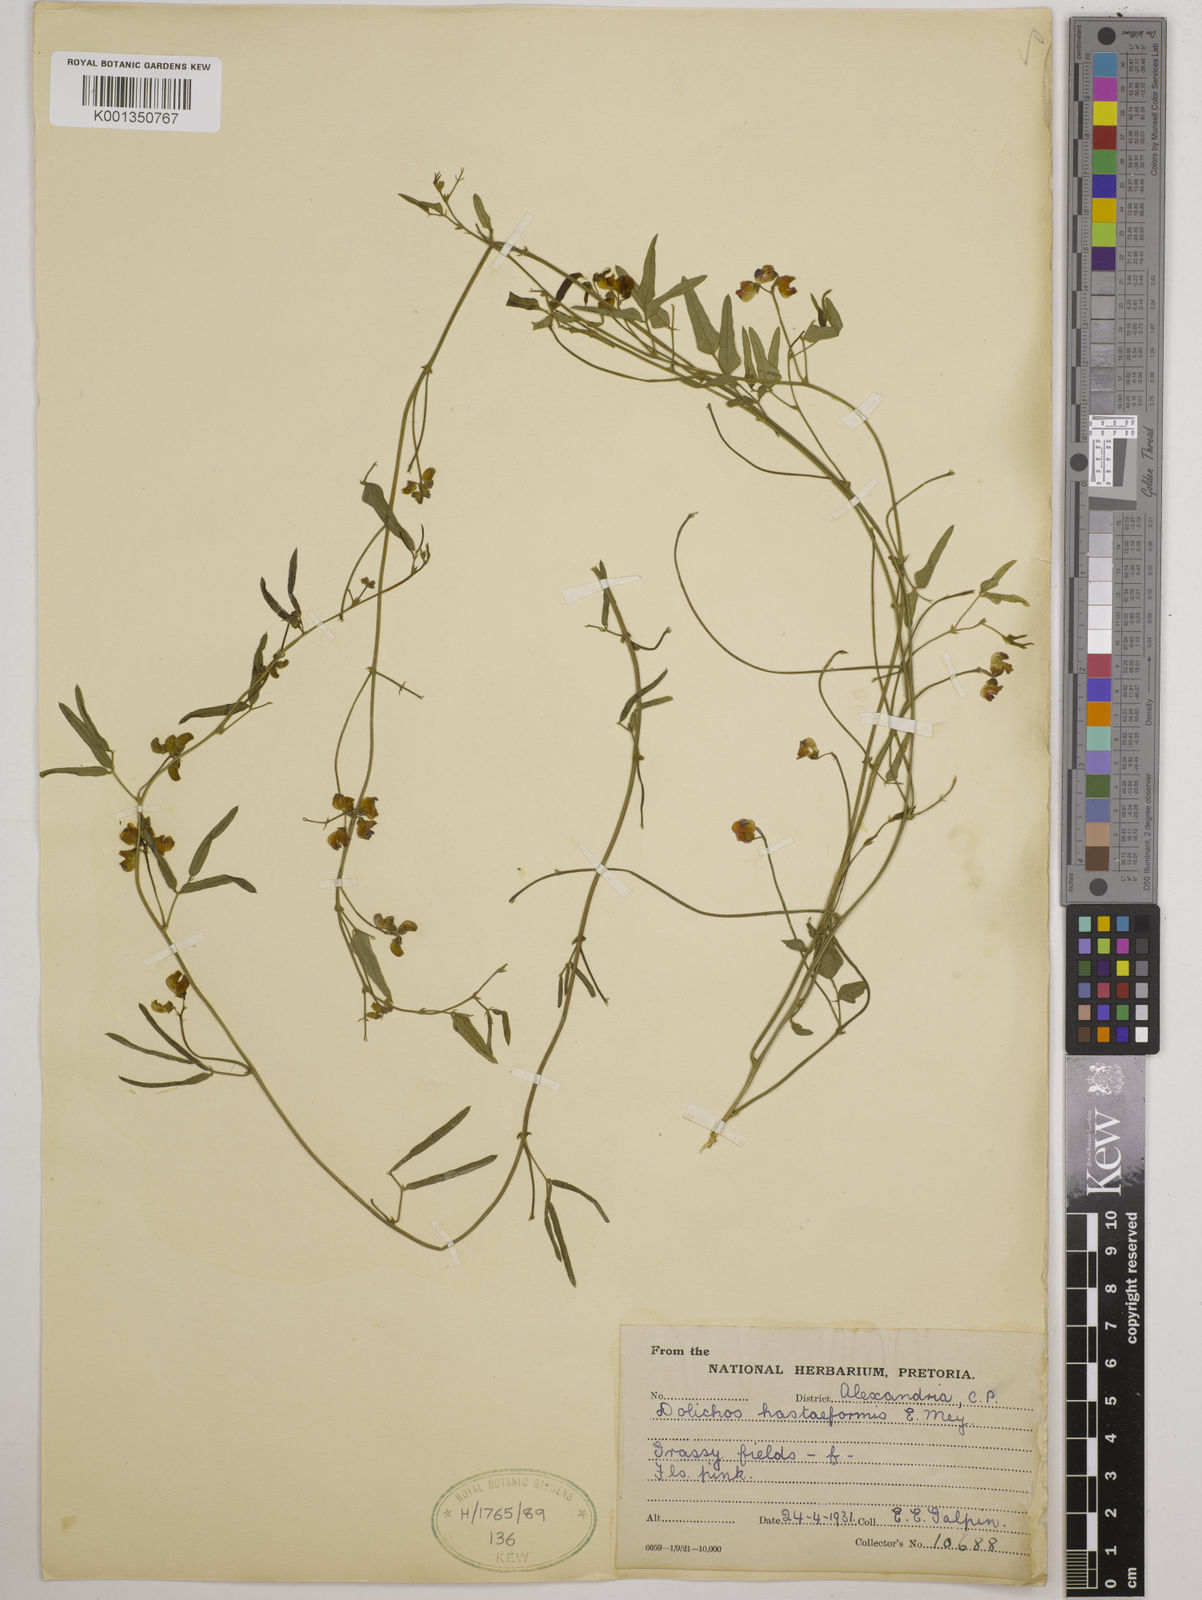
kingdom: Plantae
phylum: Tracheophyta
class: Magnoliopsida
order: Fabales
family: Fabaceae
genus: Dolichos
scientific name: Dolichos
